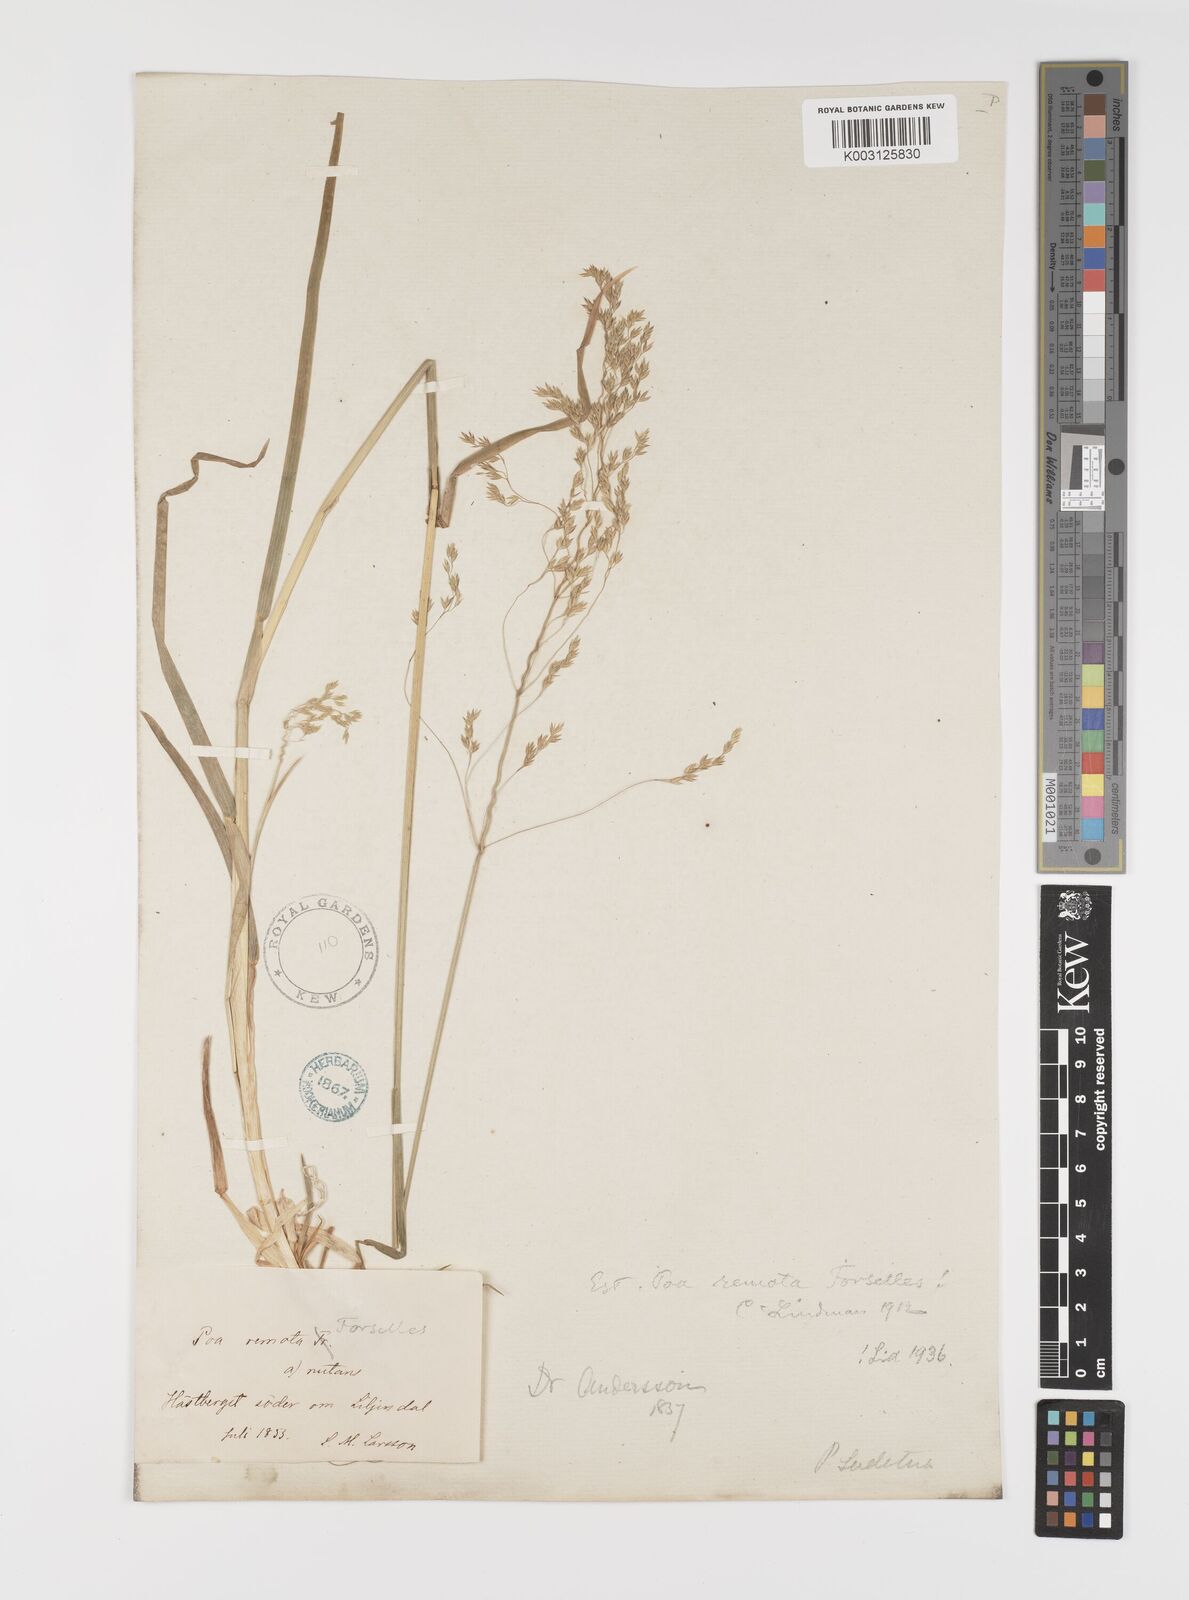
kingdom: Plantae
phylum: Tracheophyta
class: Liliopsida
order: Poales
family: Poaceae
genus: Poa
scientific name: Poa remota
